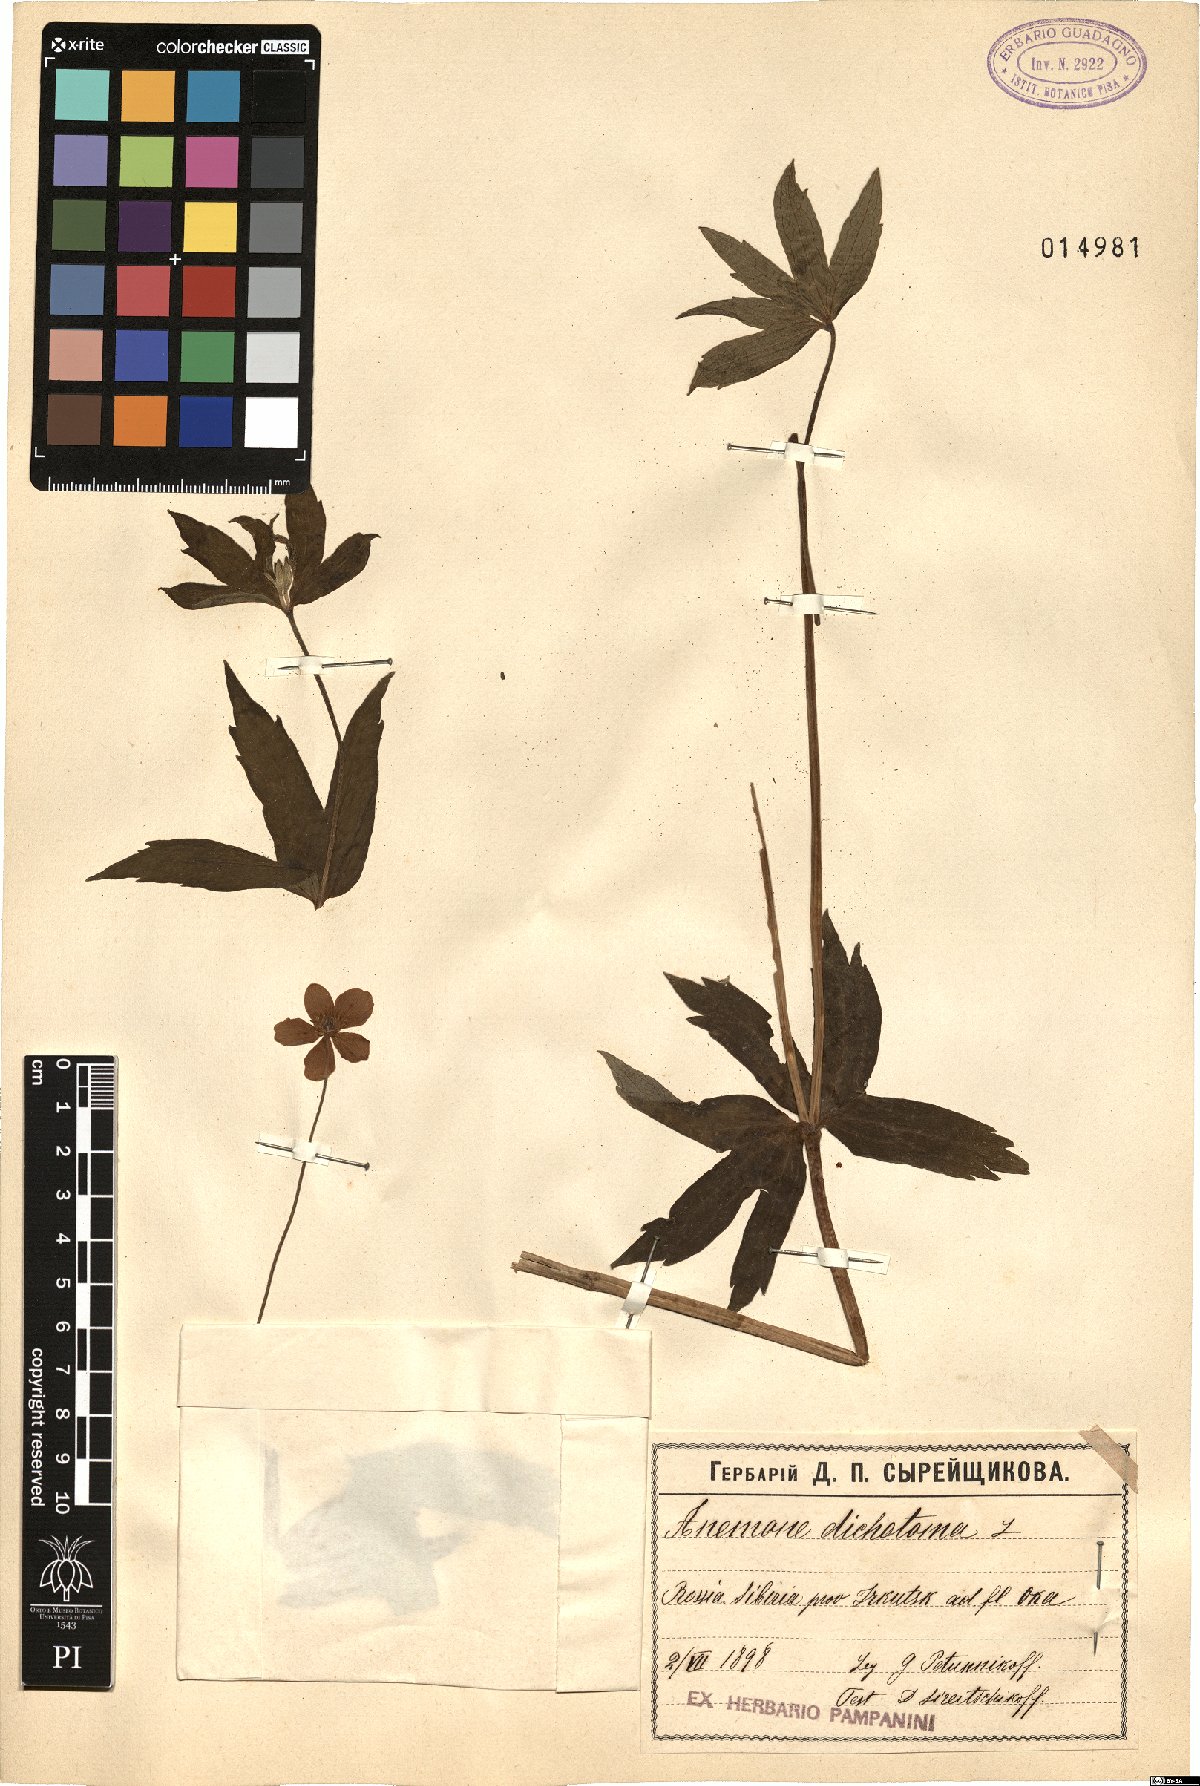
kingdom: Plantae
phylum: Tracheophyta
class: Magnoliopsida
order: Ranunculales
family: Ranunculaceae
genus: Anemonastrum
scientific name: Anemonastrum dichotomum
